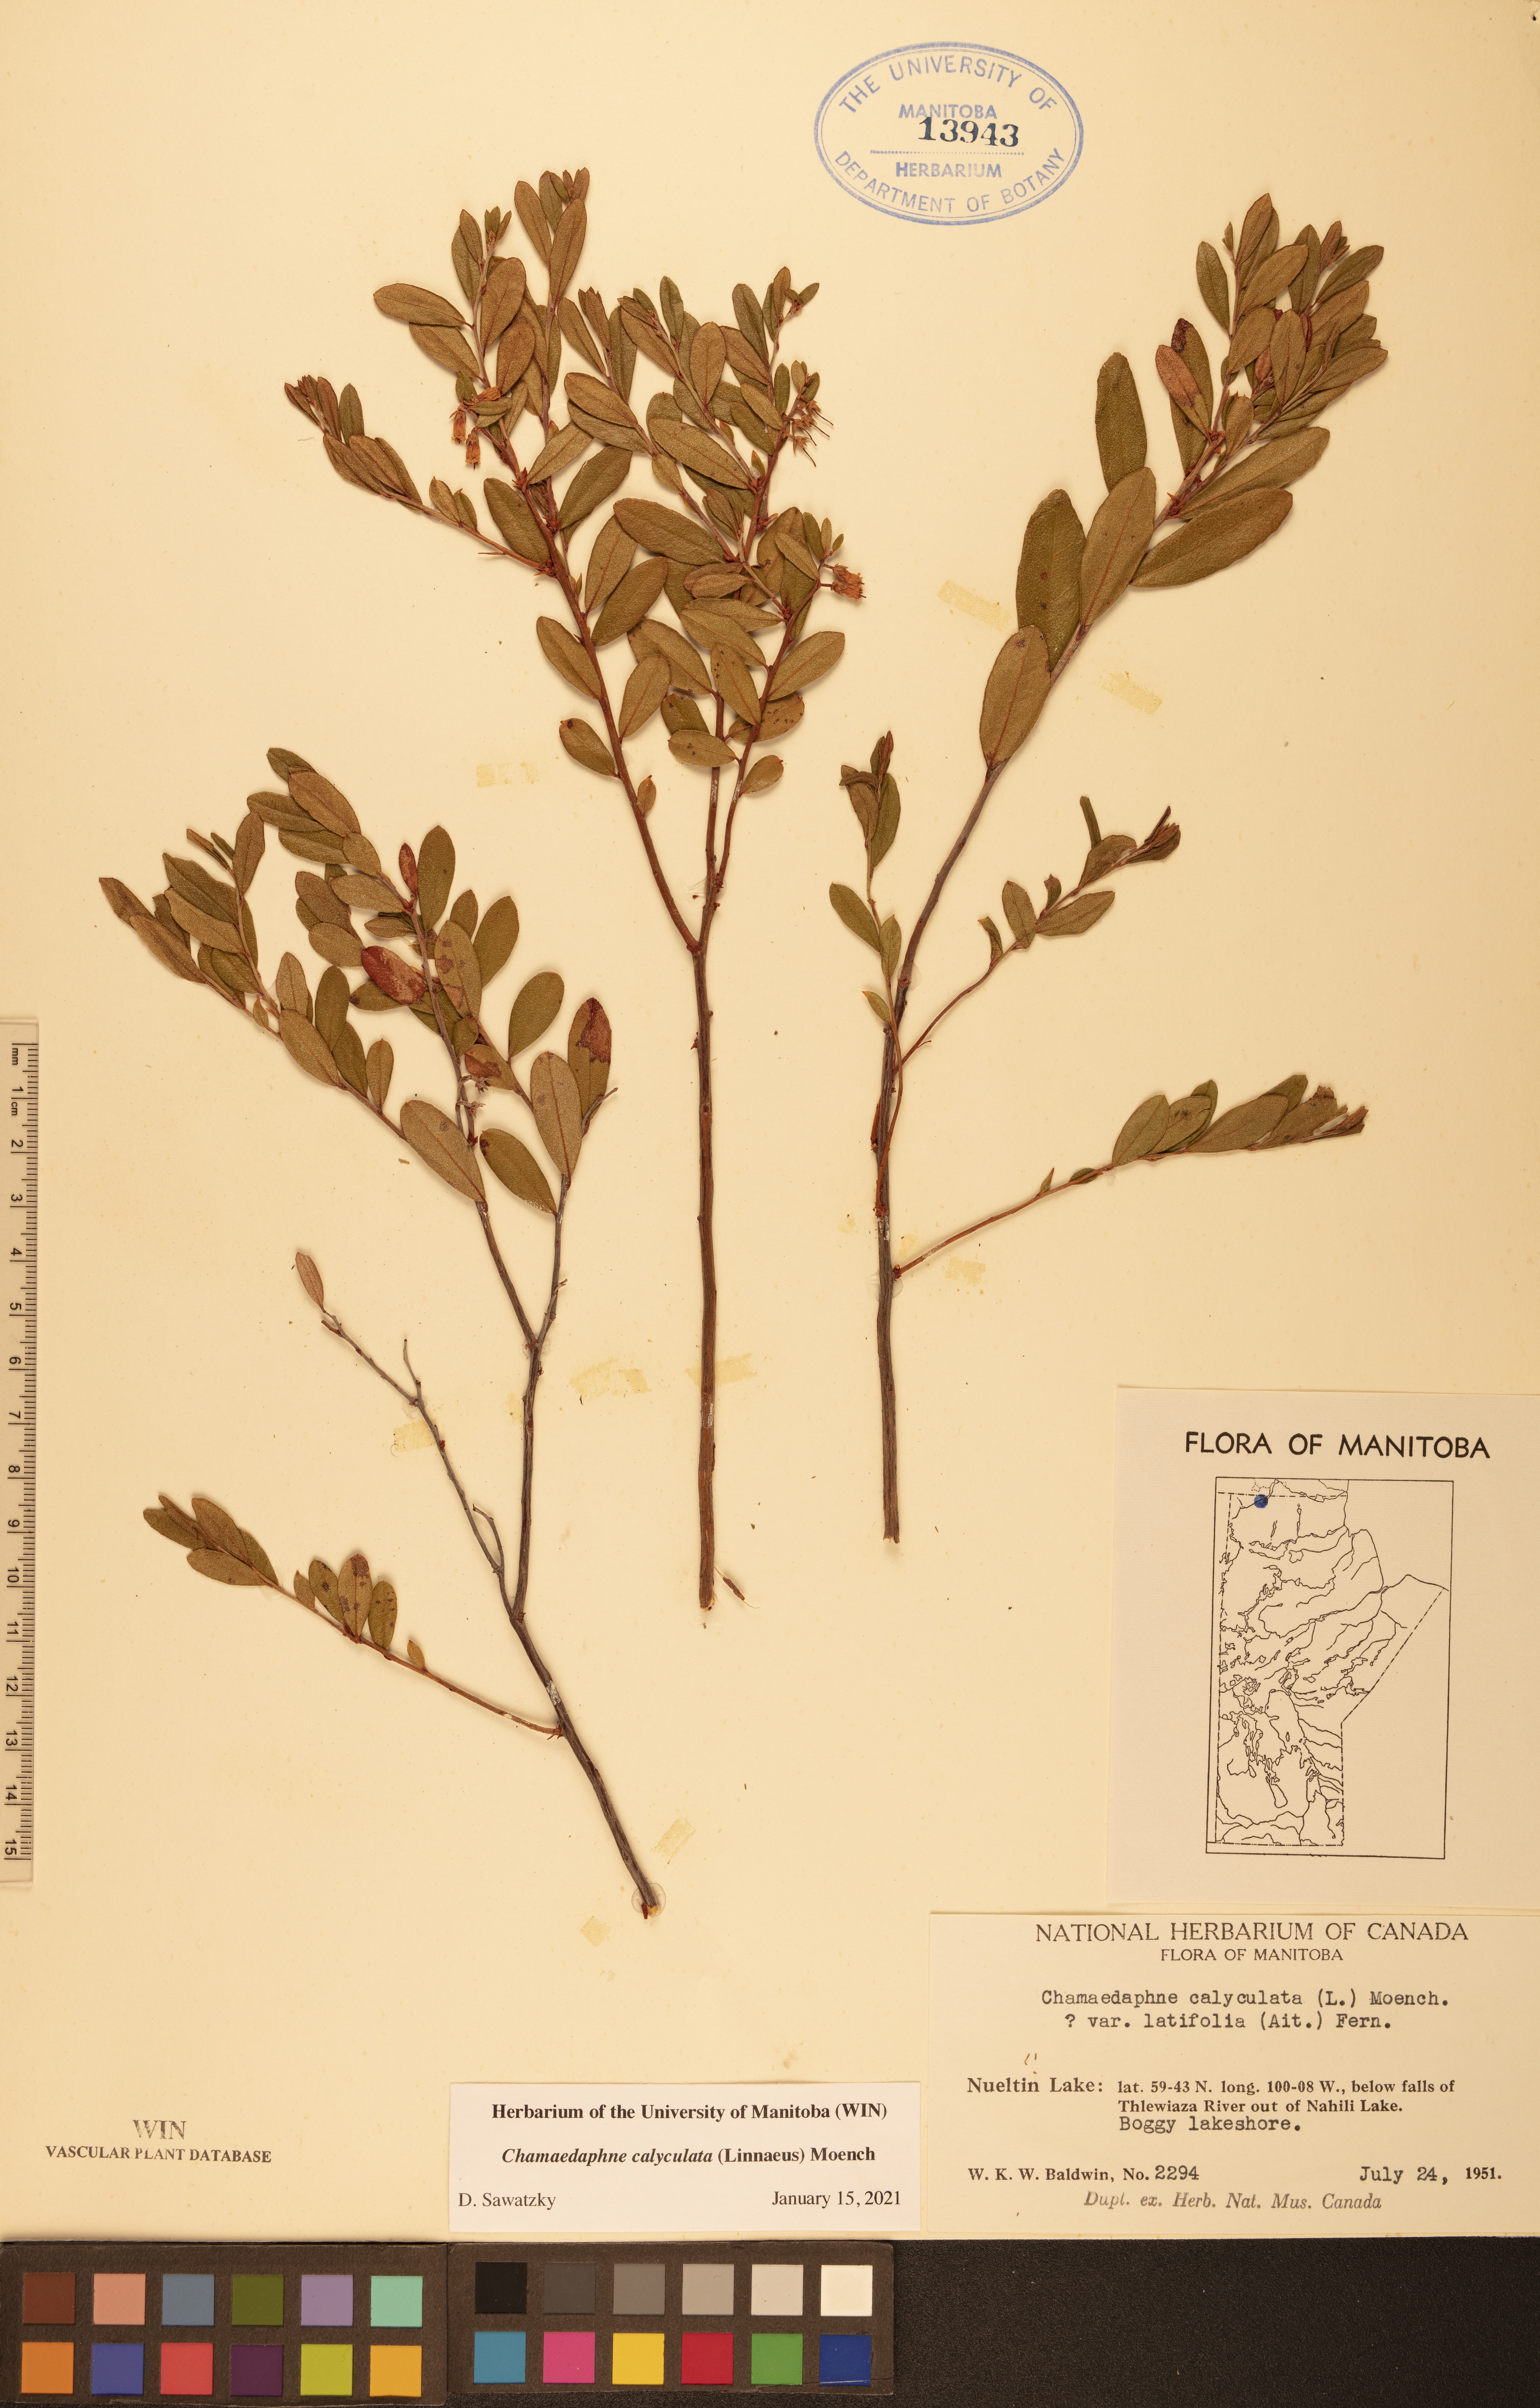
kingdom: Plantae
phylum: Tracheophyta
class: Magnoliopsida
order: Ericales
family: Ericaceae
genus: Chamaedaphne
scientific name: Chamaedaphne calyculata
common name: Leatherleaf
